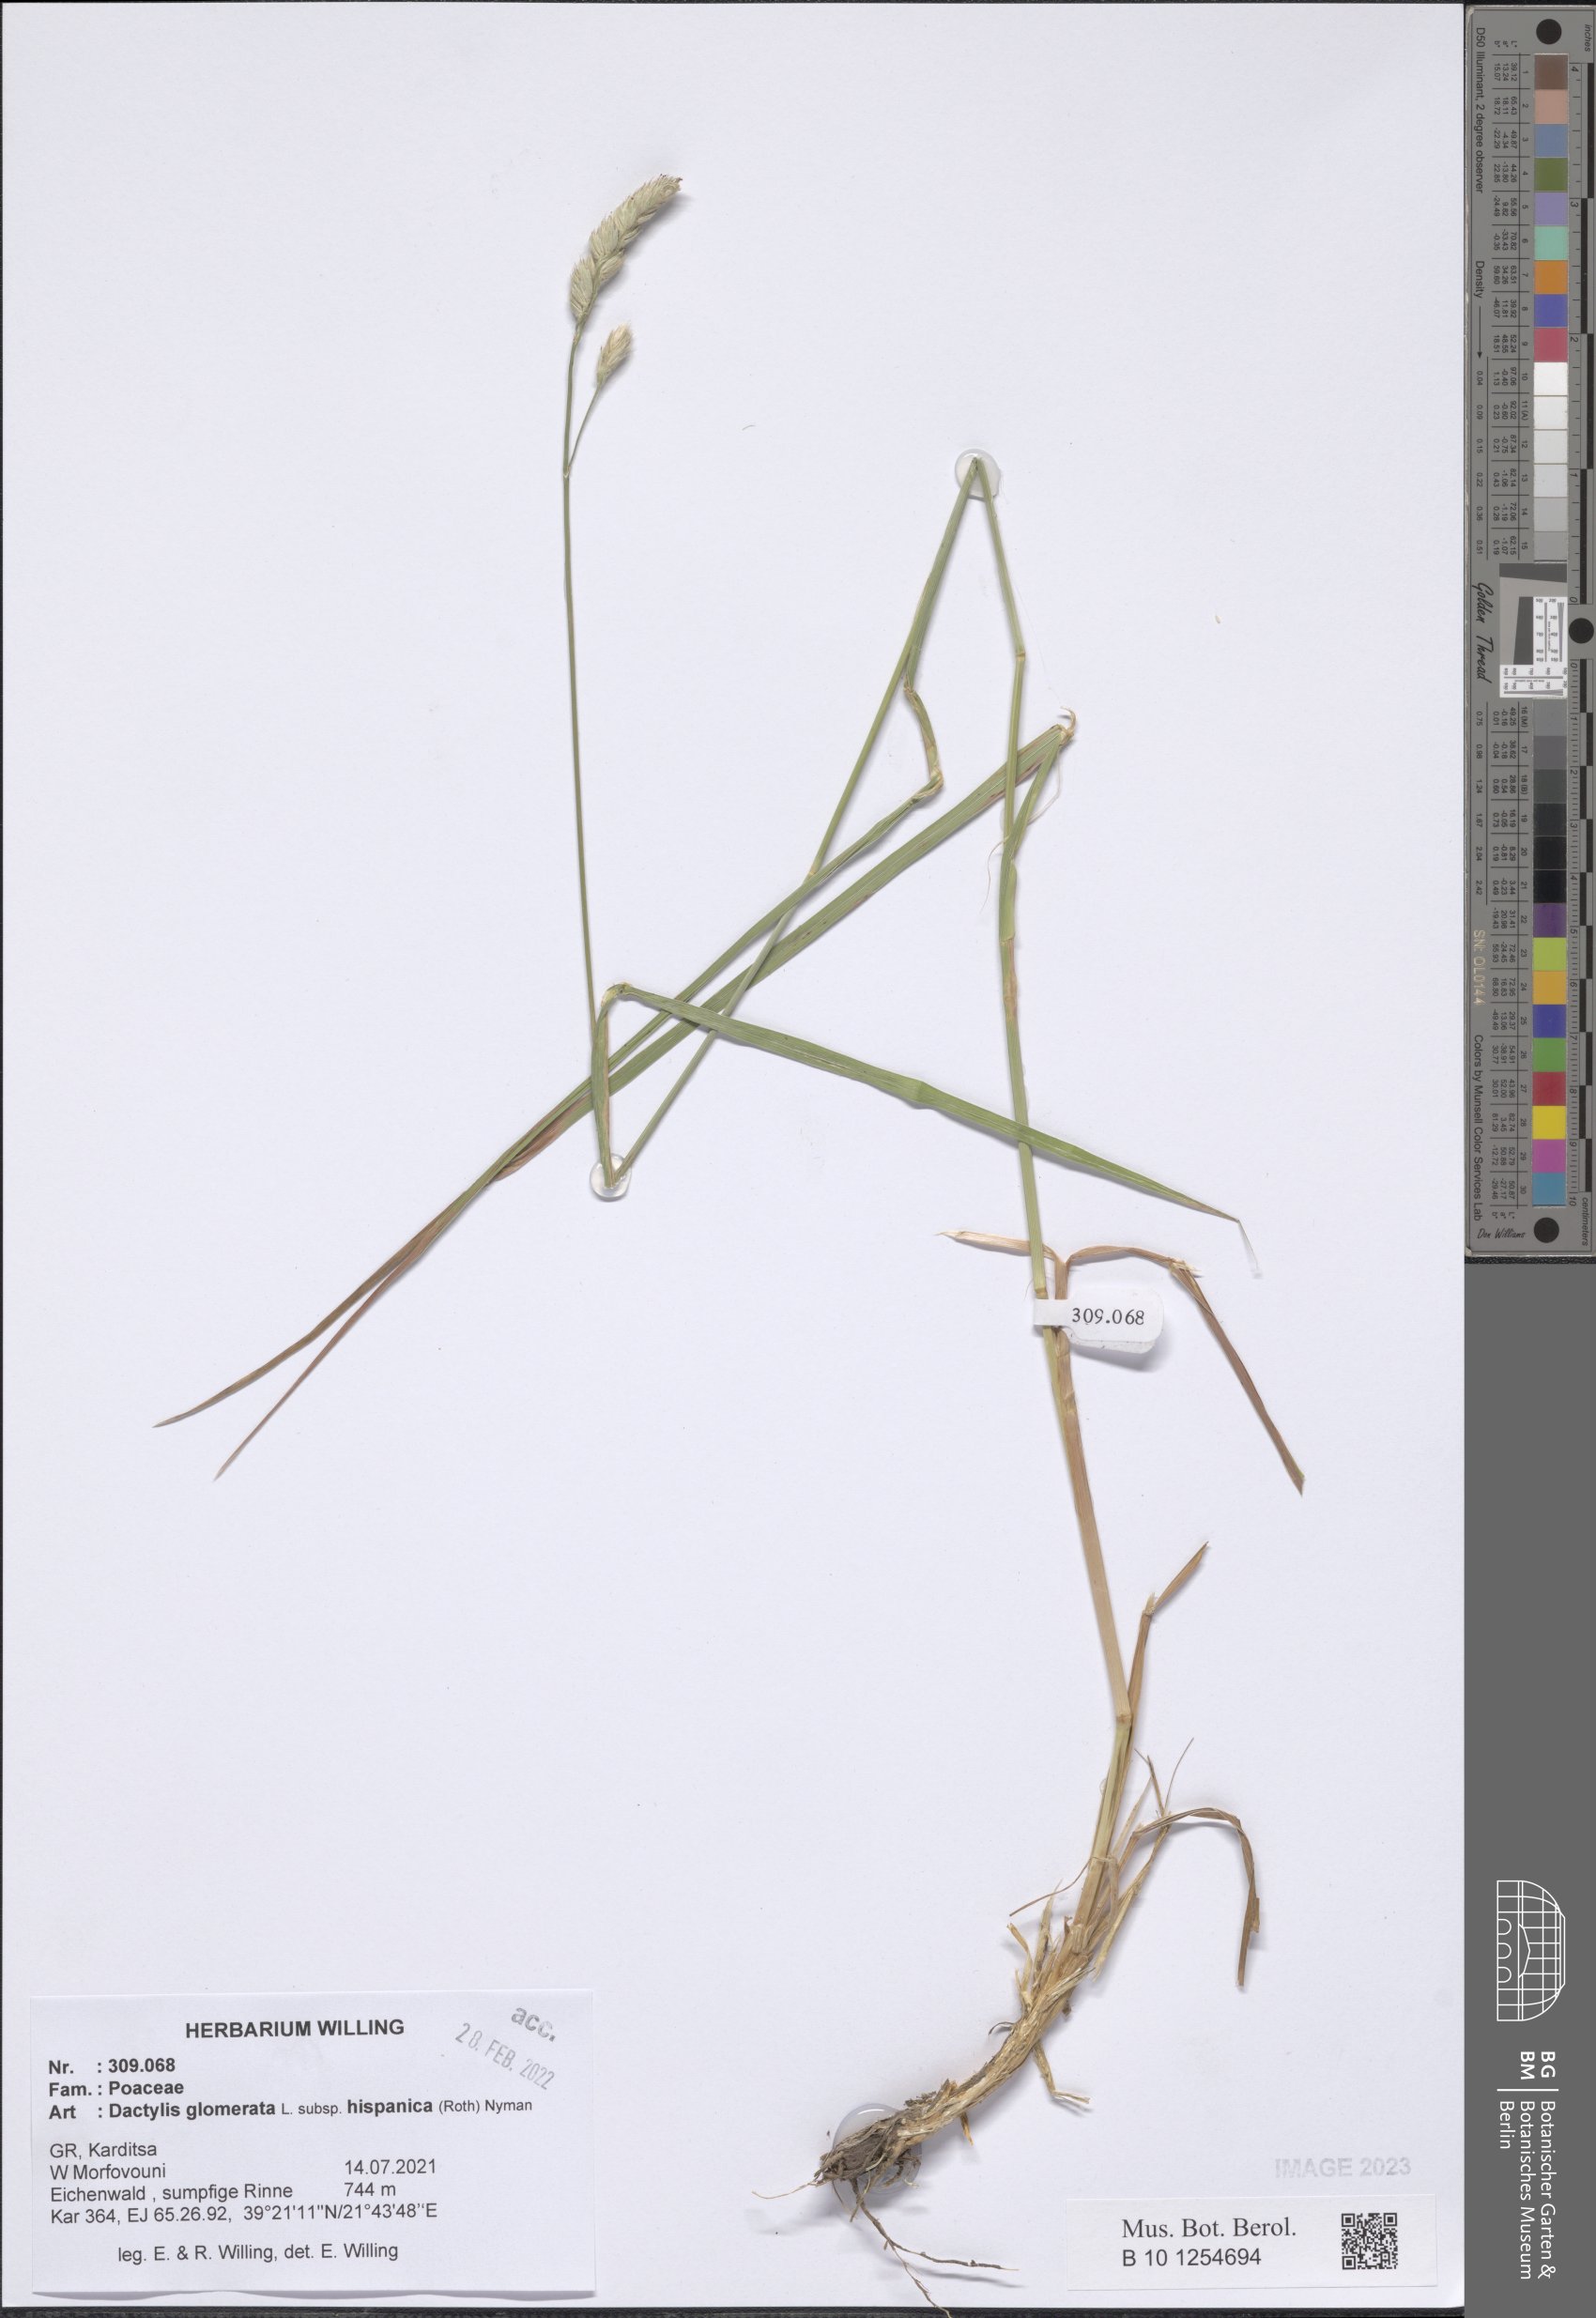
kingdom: Plantae
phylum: Tracheophyta
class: Liliopsida
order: Poales
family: Poaceae
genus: Dactylis
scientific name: Dactylis glomerata
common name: Orchardgrass
